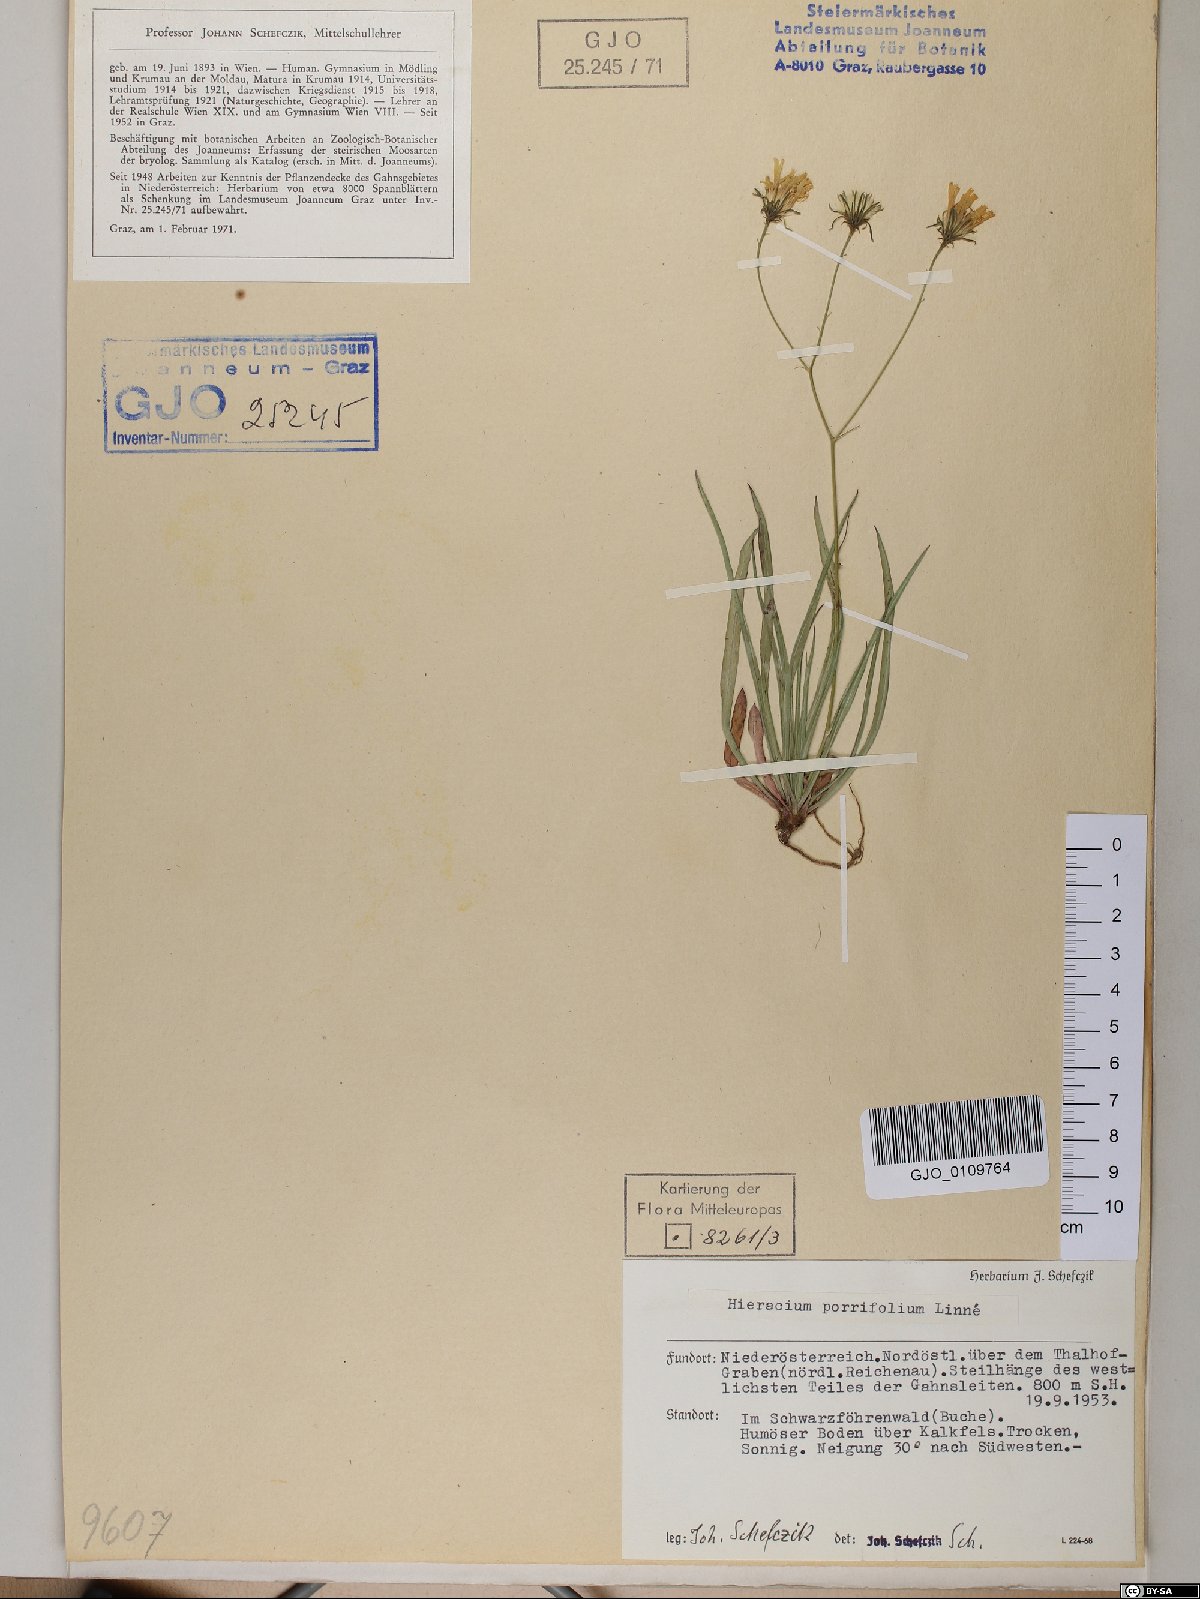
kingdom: Plantae
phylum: Tracheophyta
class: Magnoliopsida
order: Asterales
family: Asteraceae
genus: Hieracium
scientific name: Hieracium porrifolium
